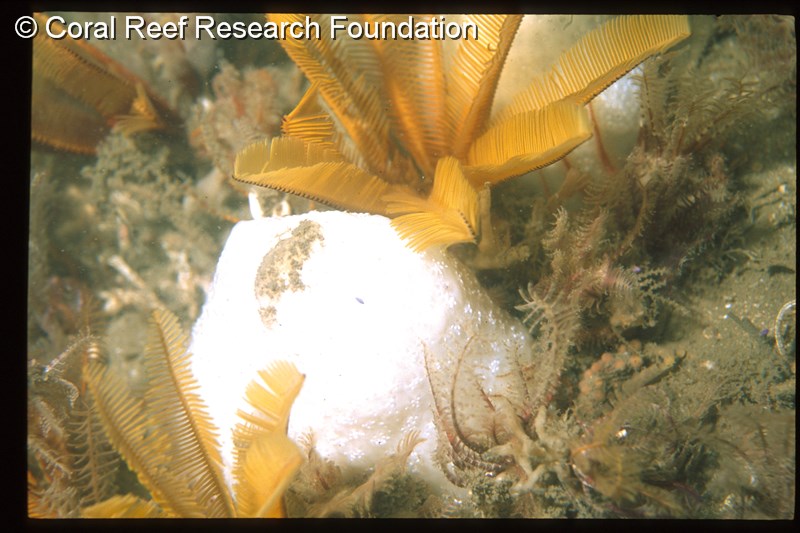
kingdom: Animalia
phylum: Chordata
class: Ascidiacea
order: Aplousobranchia
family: Holozoidae
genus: Distaplia
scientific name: Distaplia skoogi
